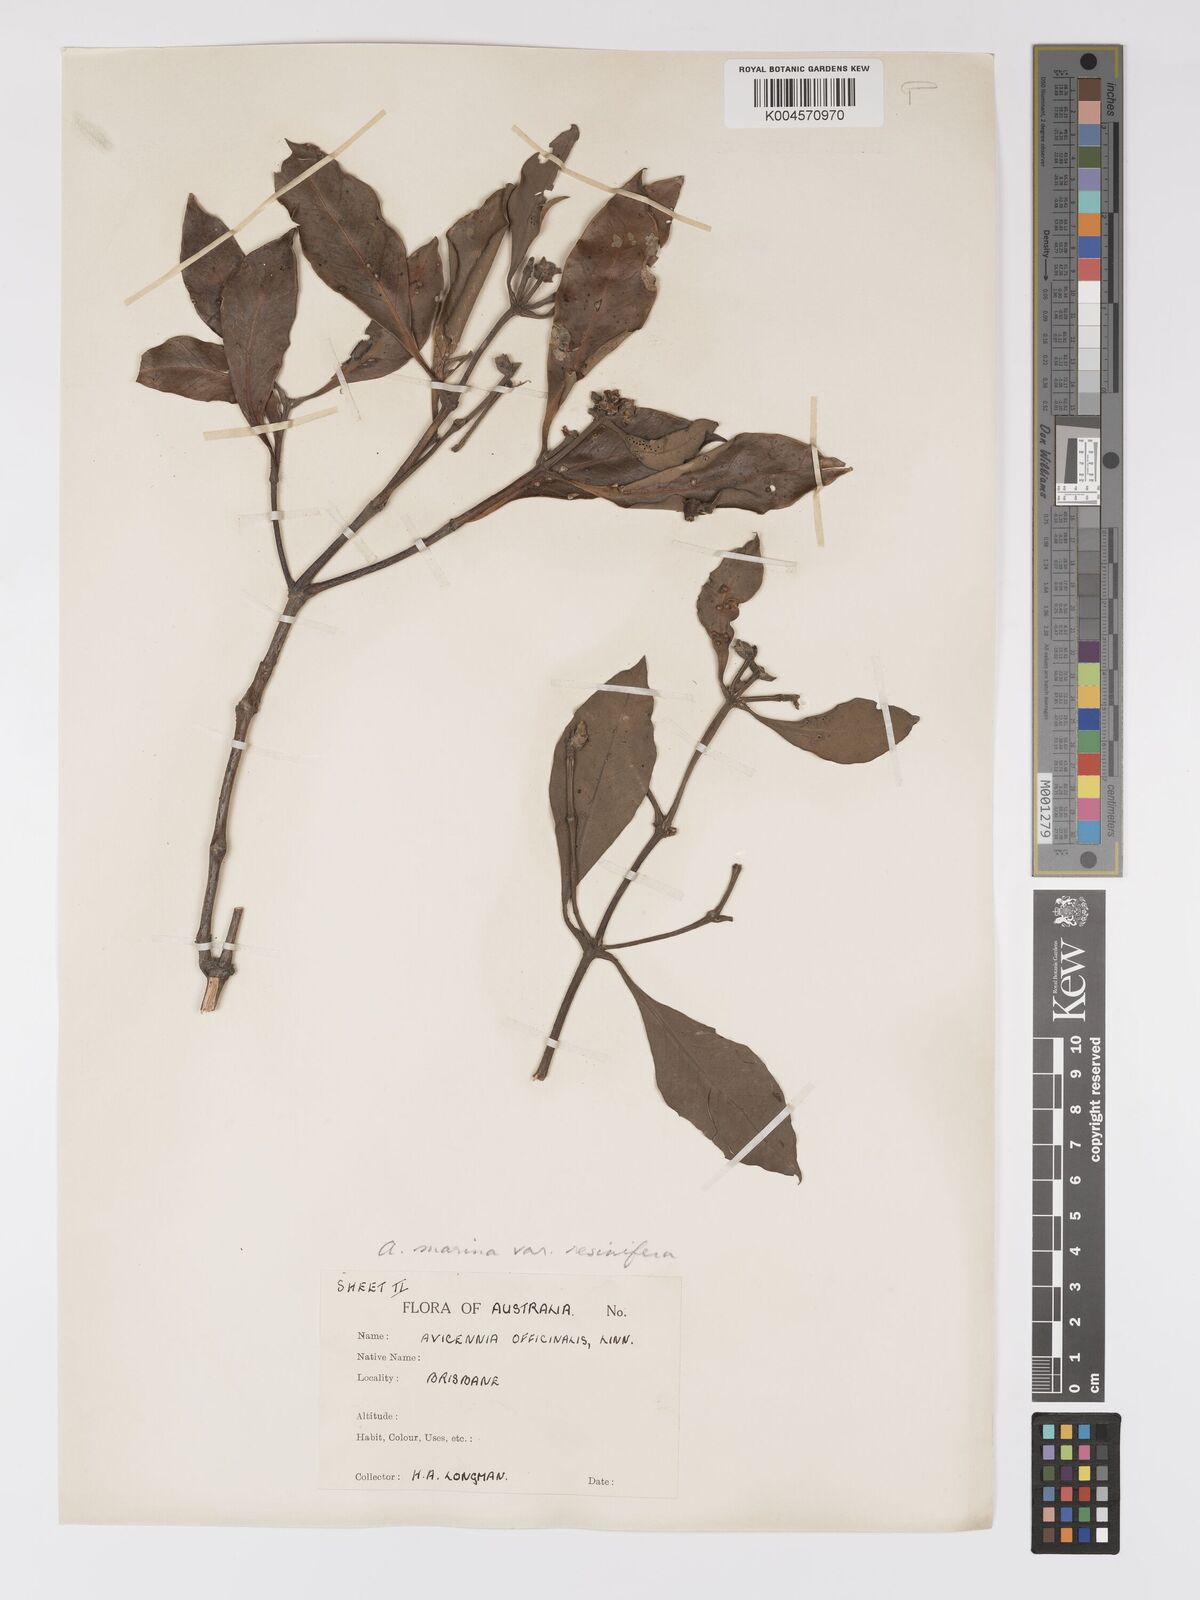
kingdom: Plantae
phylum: Tracheophyta
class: Magnoliopsida
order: Lamiales
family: Acanthaceae
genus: Avicennia
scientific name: Avicennia marina
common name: Gray mangrove
